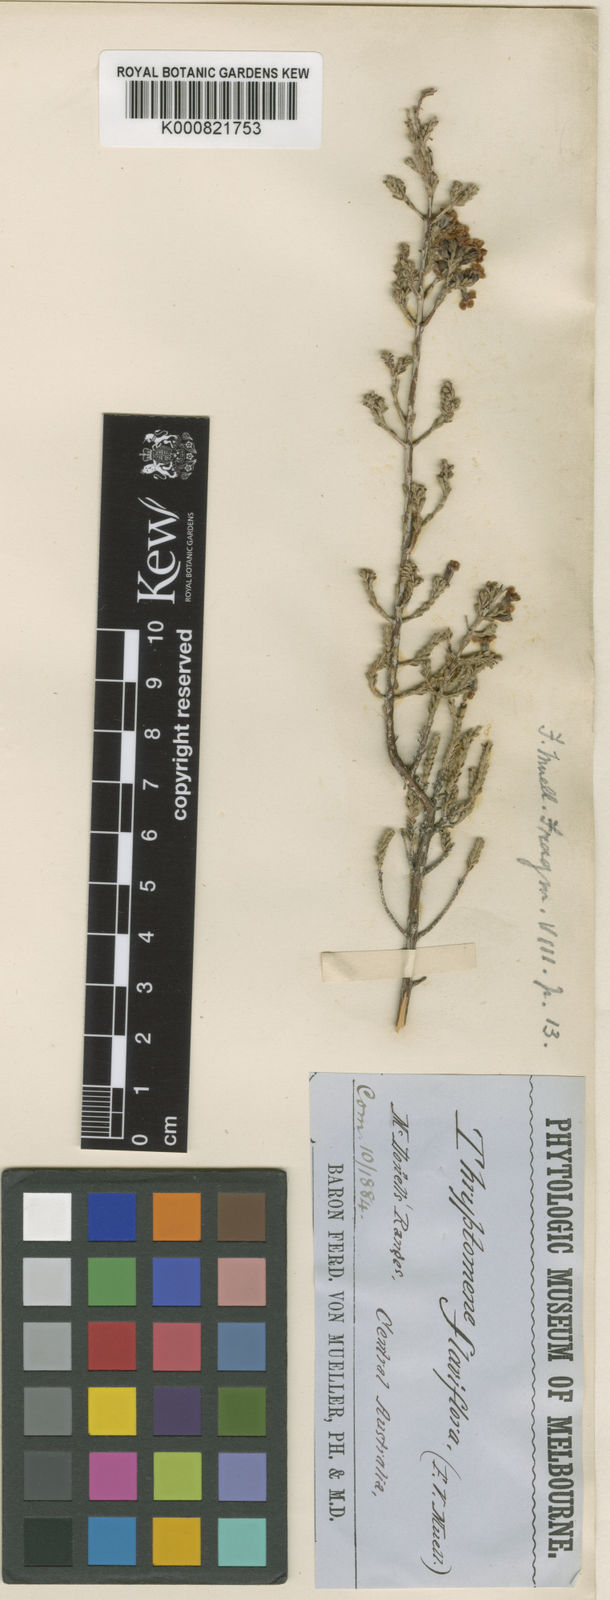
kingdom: Plantae
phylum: Tracheophyta
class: Magnoliopsida
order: Myrtales
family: Myrtaceae
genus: Micromyrtus
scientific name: Micromyrtus flaviflora
